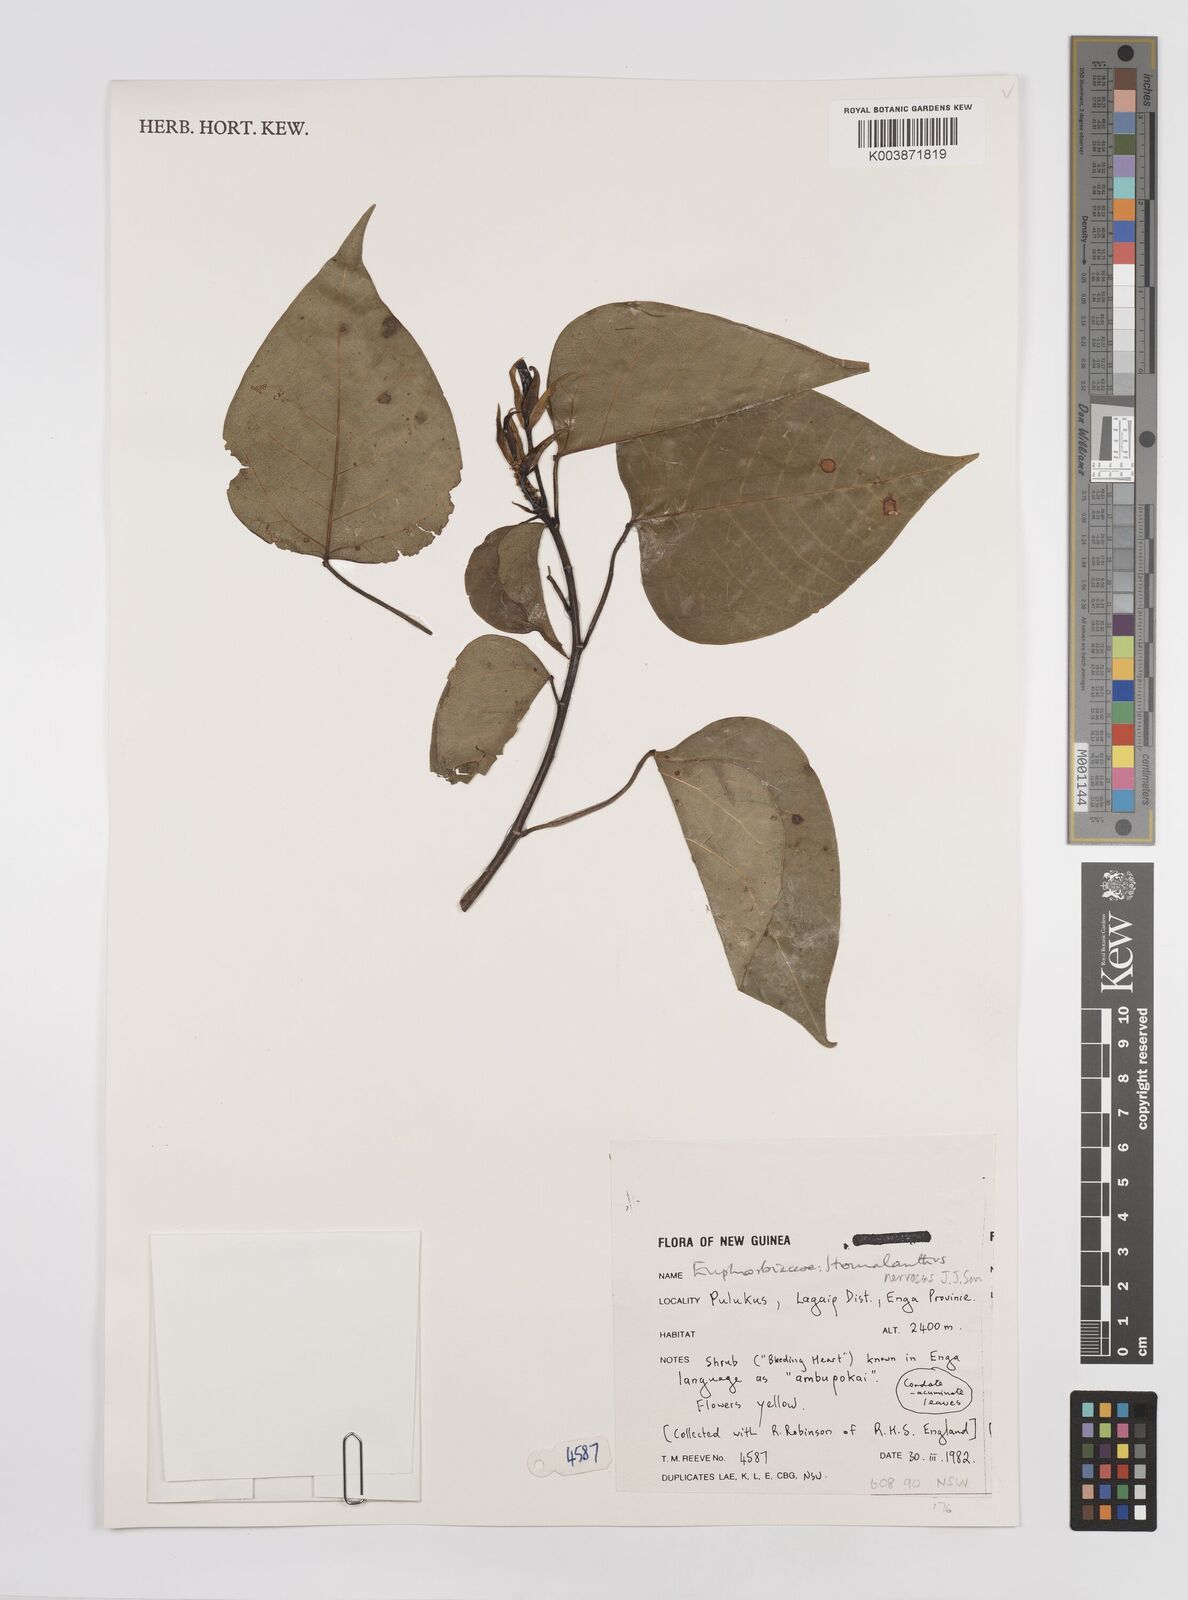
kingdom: Plantae
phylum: Tracheophyta
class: Magnoliopsida
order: Malpighiales
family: Euphorbiaceae
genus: Homalanthus
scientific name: Homalanthus nervosus
